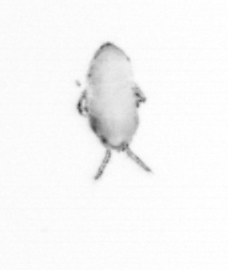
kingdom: Animalia
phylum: Annelida
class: Polychaeta
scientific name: Polychaeta
